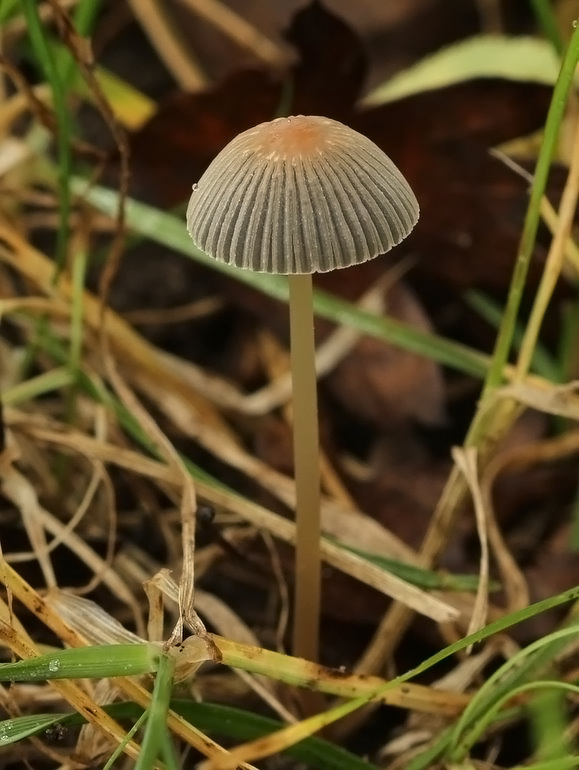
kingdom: Fungi
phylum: Basidiomycota
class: Agaricomycetes
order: Agaricales
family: Psathyrellaceae
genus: Parasola
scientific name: Parasola
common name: hjulhat
